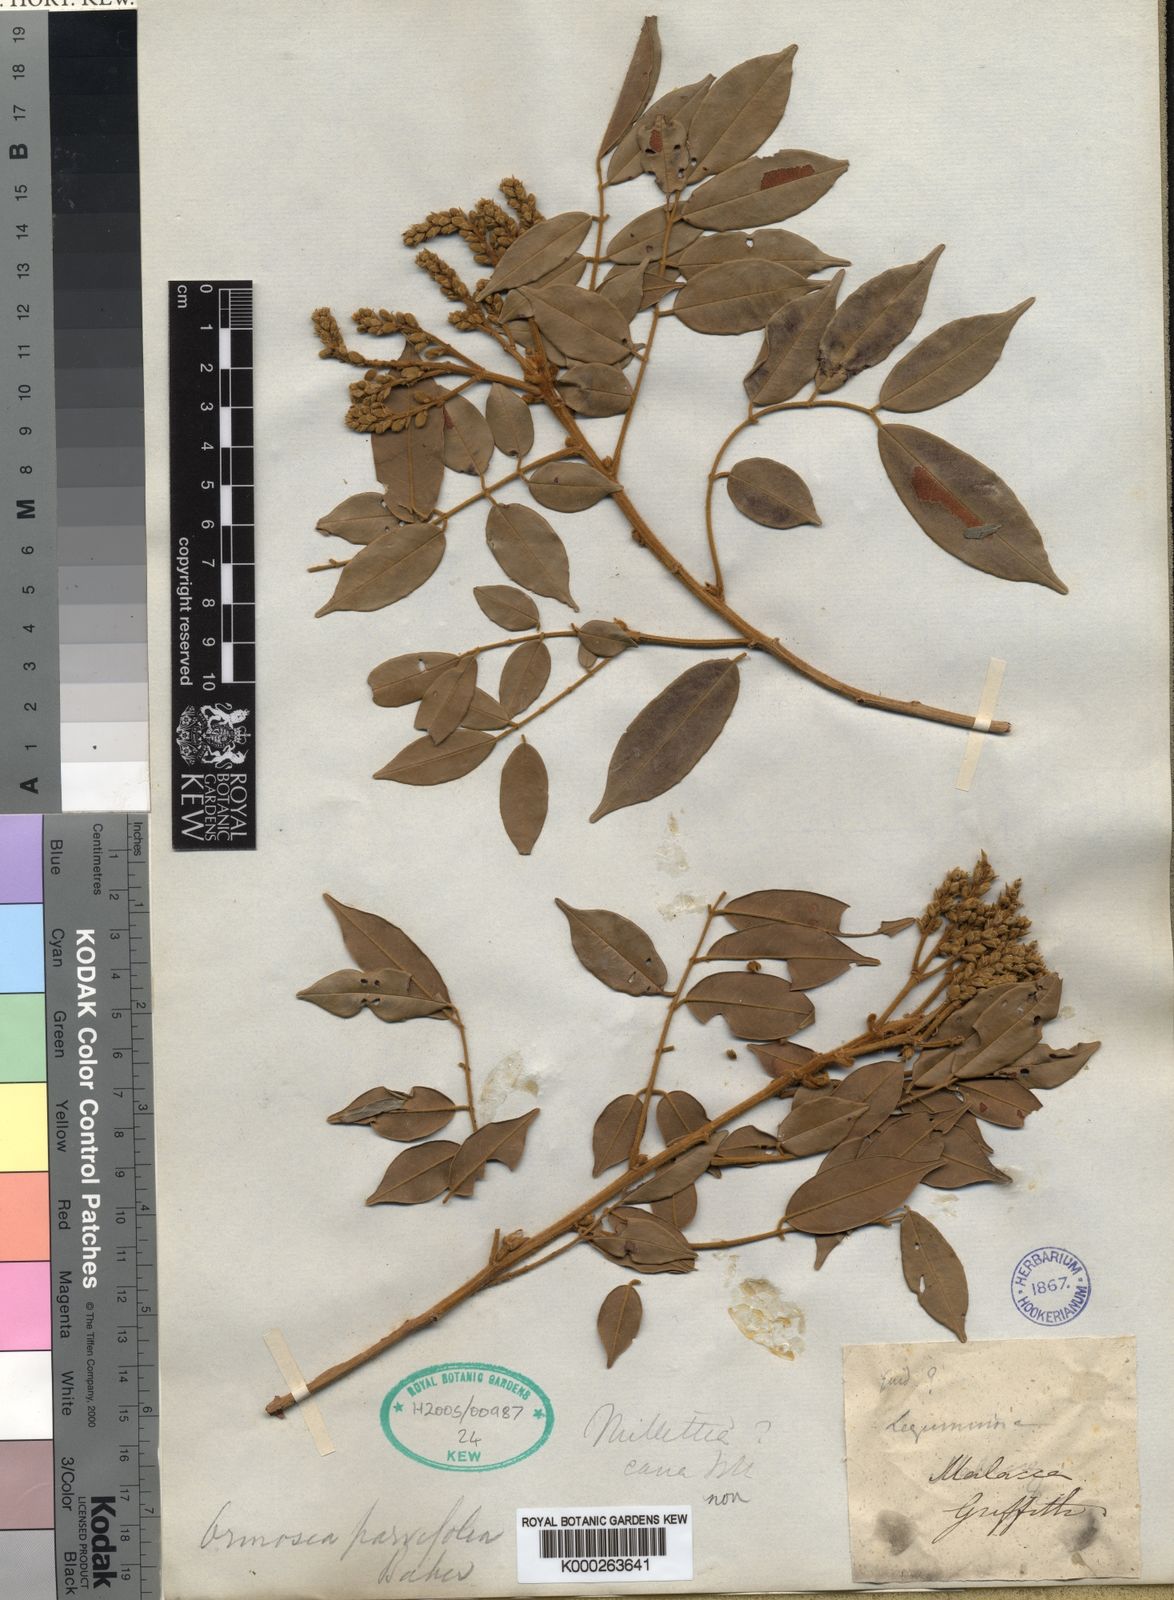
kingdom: Plantae
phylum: Tracheophyta
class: Magnoliopsida
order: Fabales
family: Fabaceae
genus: Ormosia
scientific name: Ormosia
